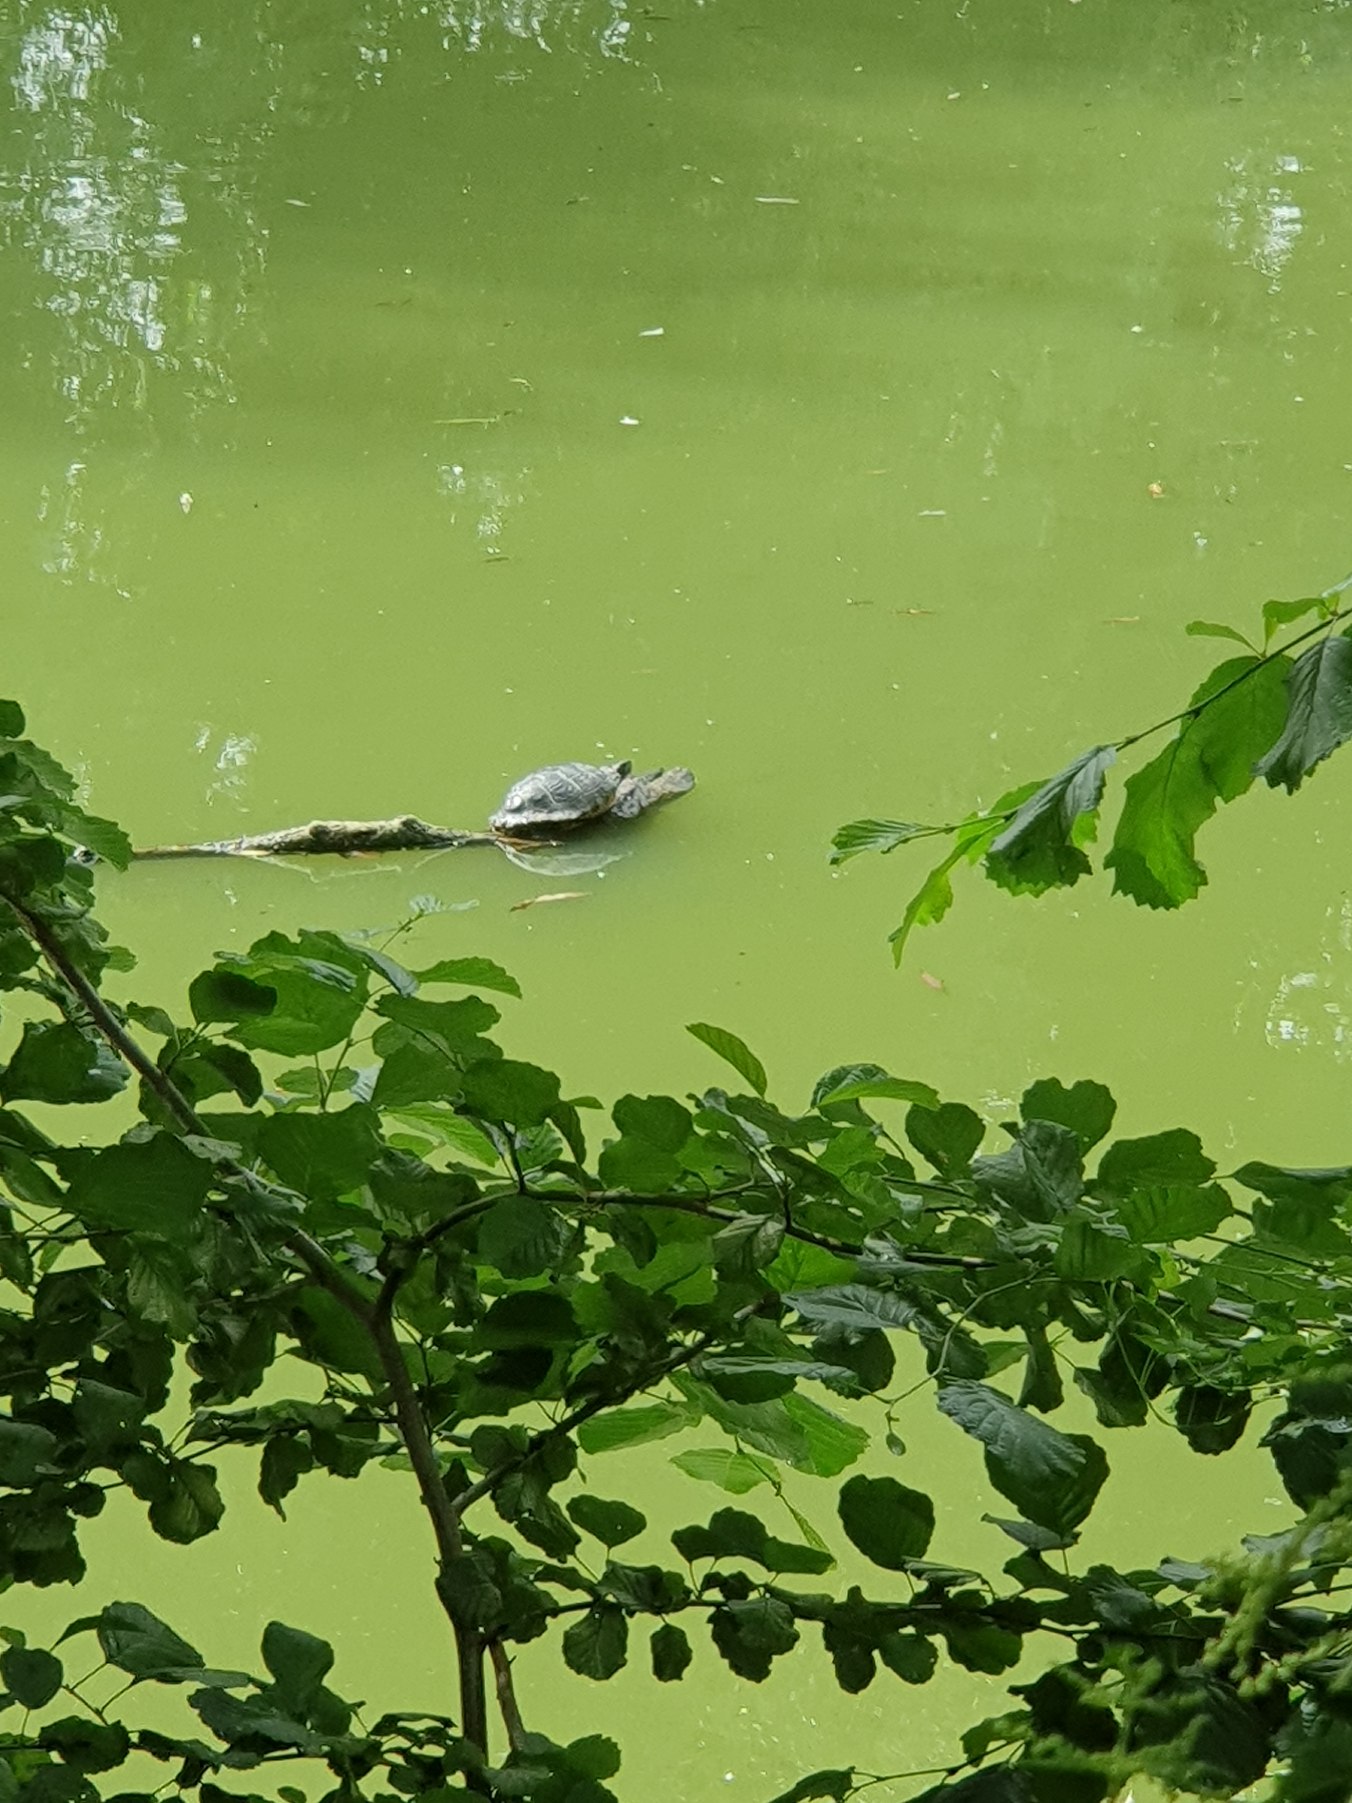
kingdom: Animalia
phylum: Chordata
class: Testudines
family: Emydidae
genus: Trachemys
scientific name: Trachemys scripta
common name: Nordamerikansk terrapin
